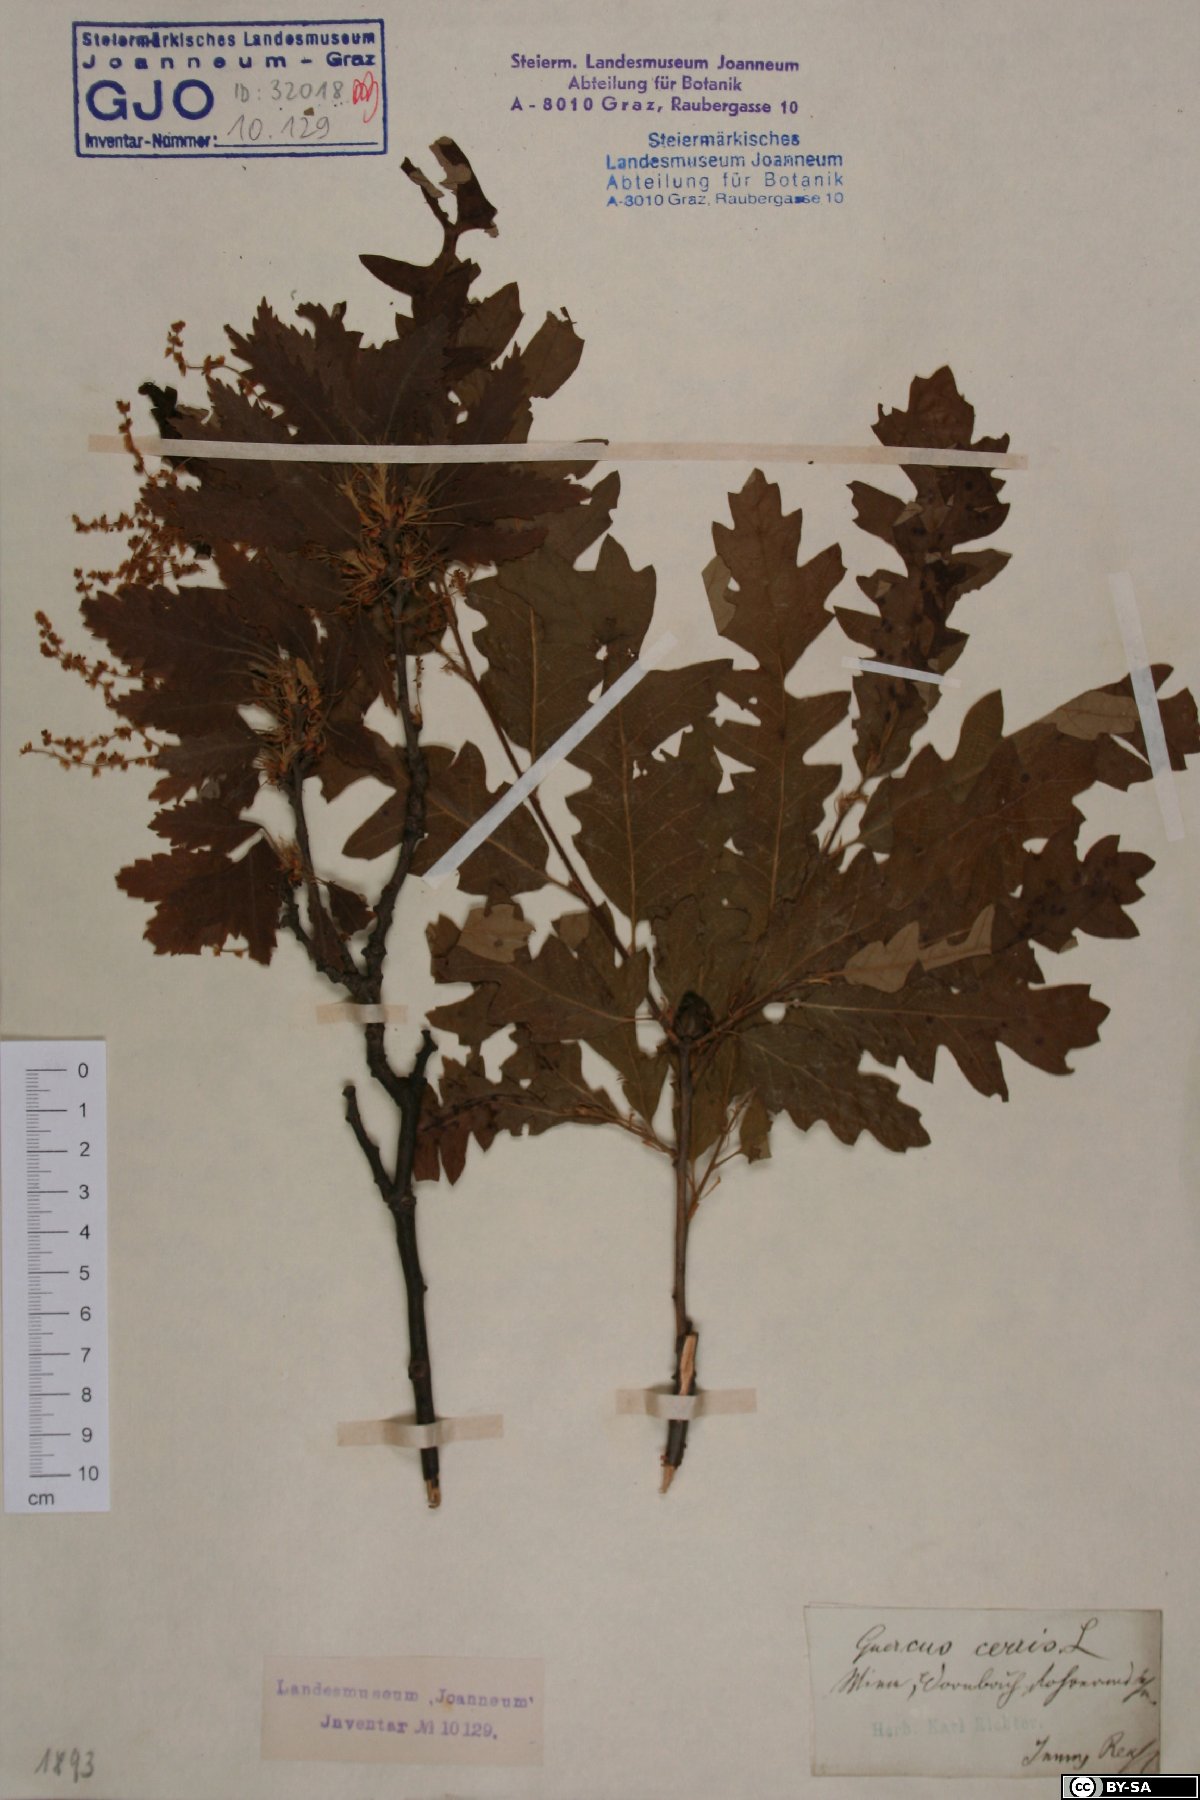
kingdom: Plantae
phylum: Tracheophyta
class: Magnoliopsida
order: Fagales
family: Fagaceae
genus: Quercus
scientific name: Quercus cerris
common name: Turkey oak
